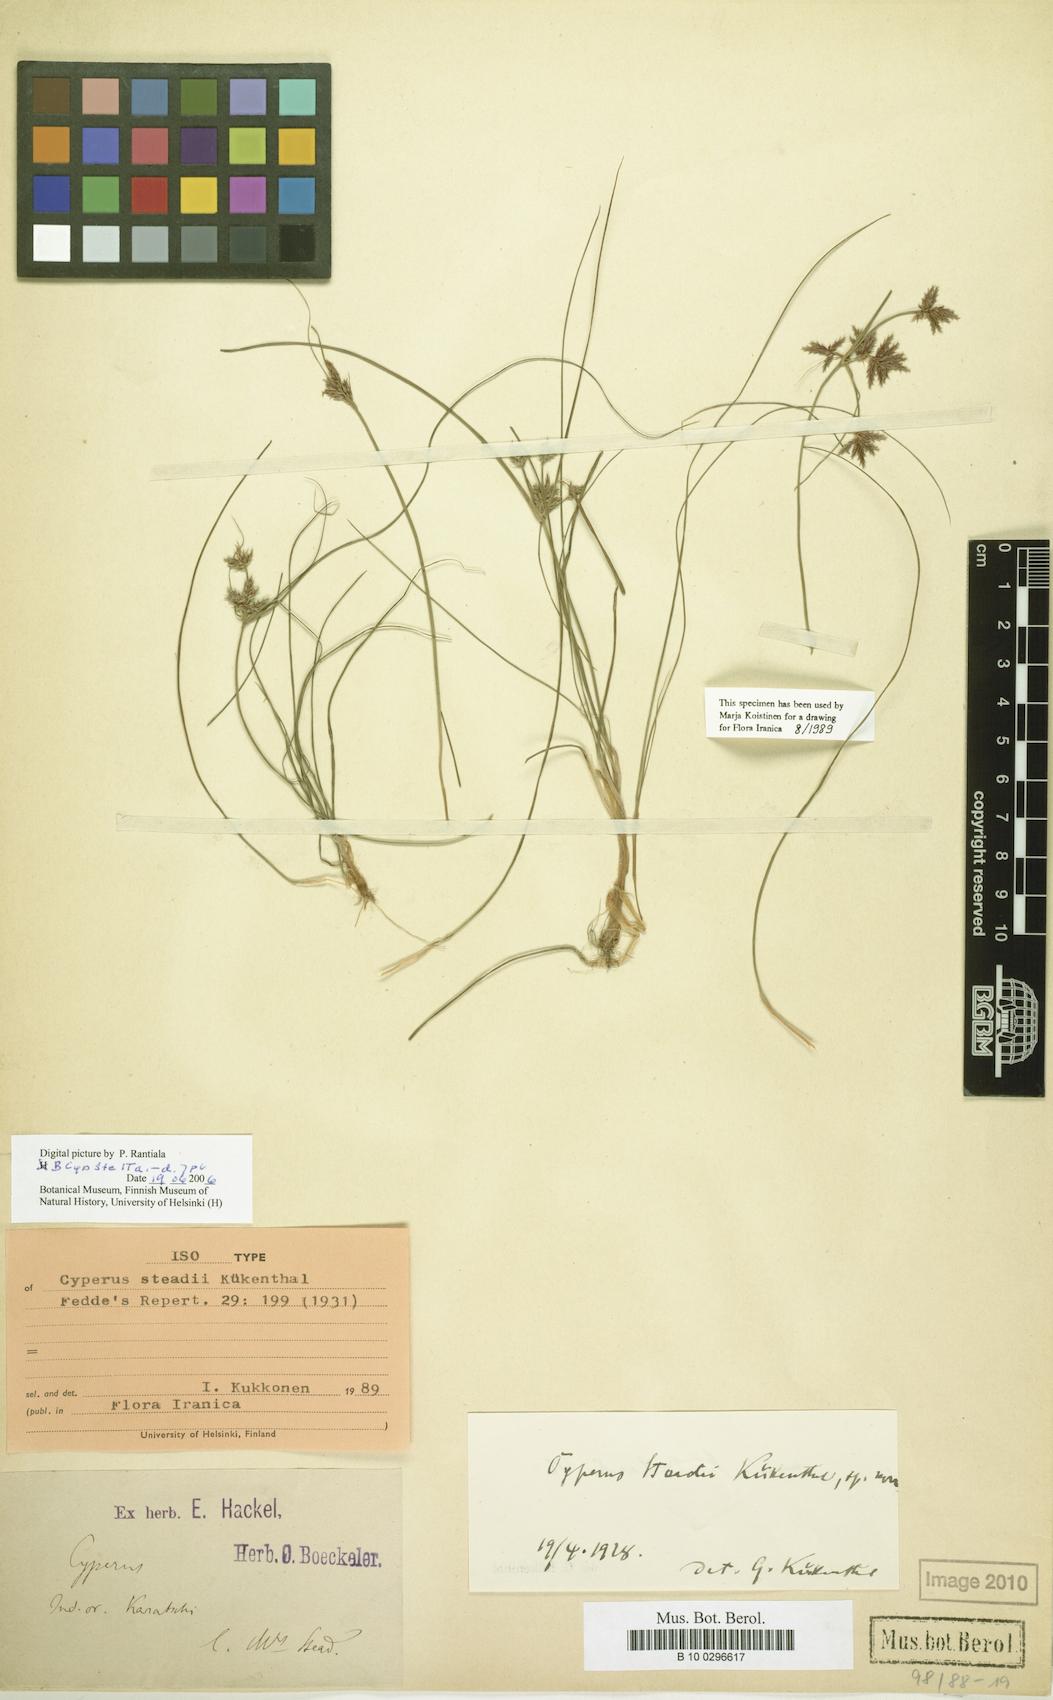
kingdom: Plantae
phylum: Tracheophyta
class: Liliopsida
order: Poales
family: Cyperaceae
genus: Cyperus
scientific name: Cyperus steadii
